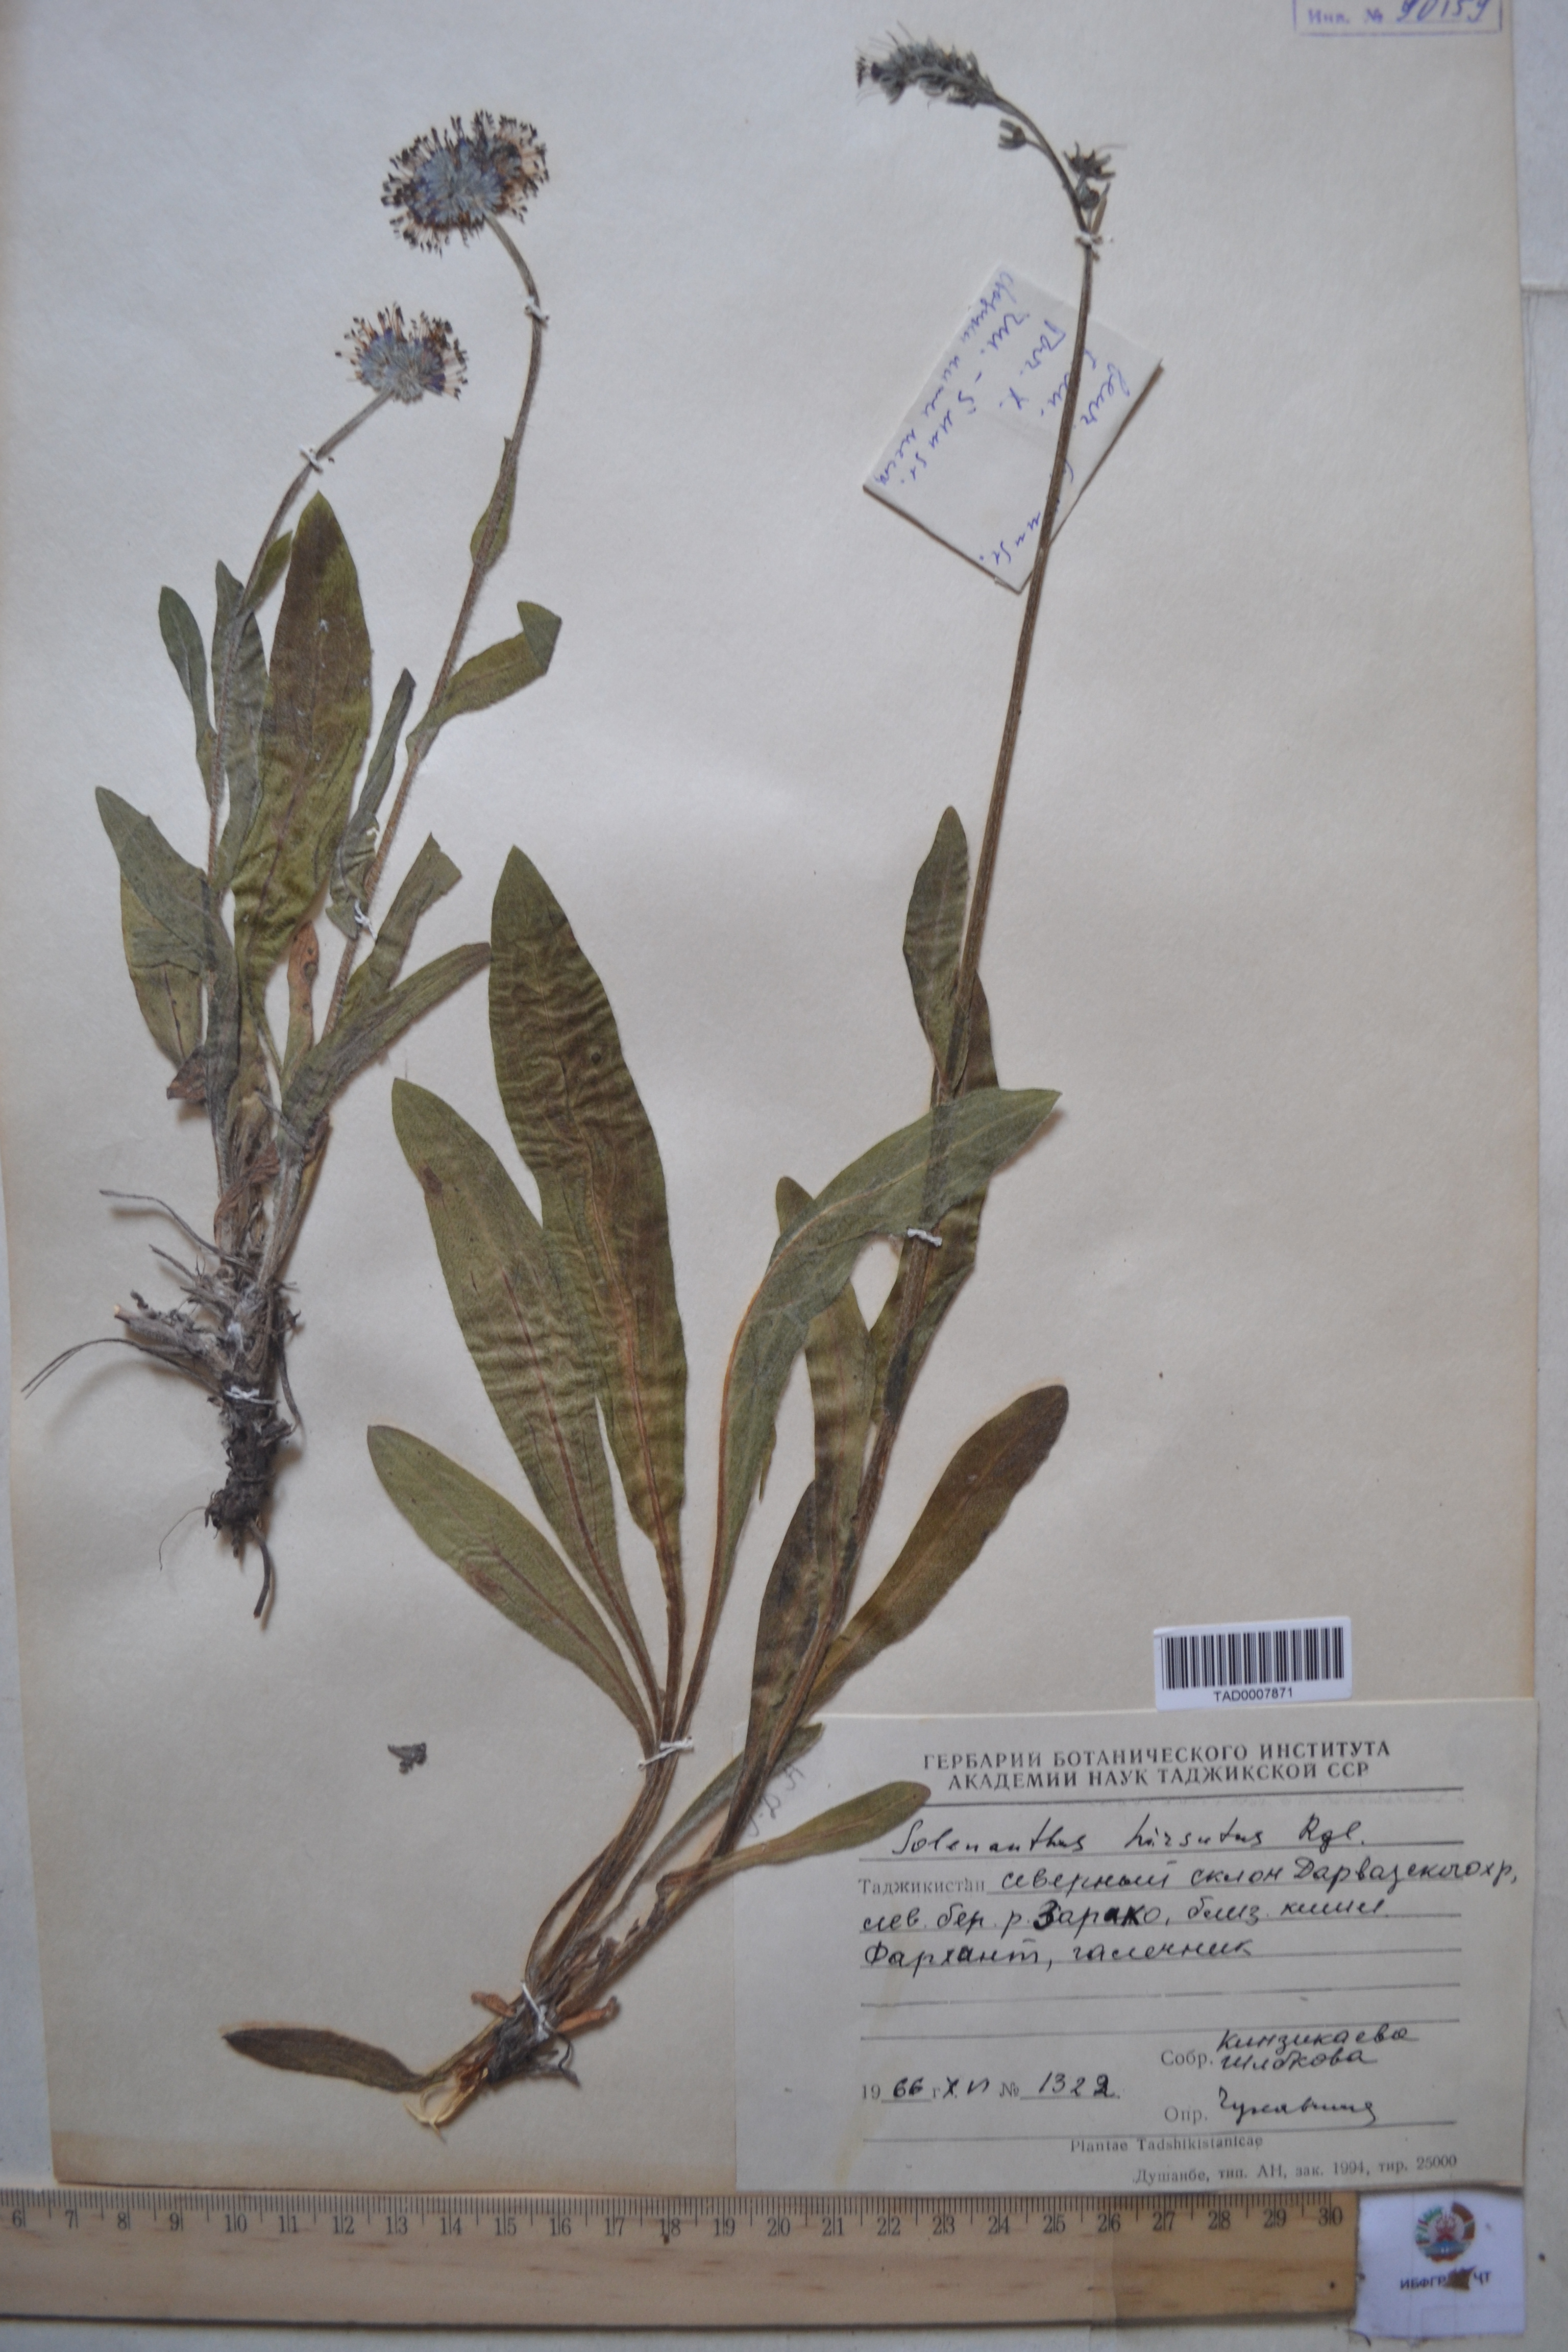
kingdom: Plantae
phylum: Tracheophyta
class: Magnoliopsida
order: Boraginales
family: Boraginaceae
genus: Solenanthus
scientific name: Solenanthus hirsutus
